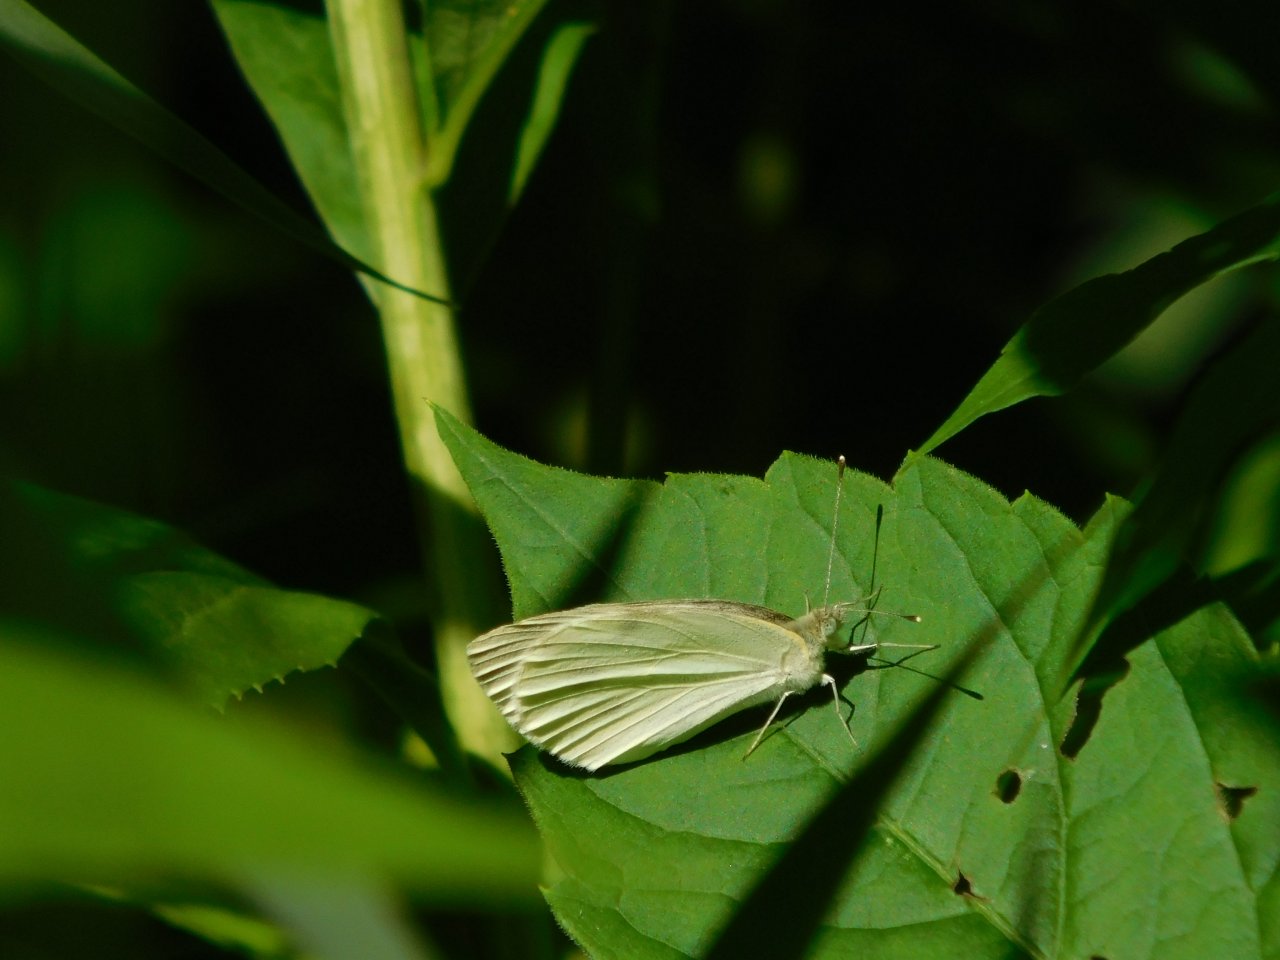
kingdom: Animalia
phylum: Arthropoda
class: Insecta
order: Lepidoptera
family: Pieridae
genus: Pieris
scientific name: Pieris rapae
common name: Cabbage White
